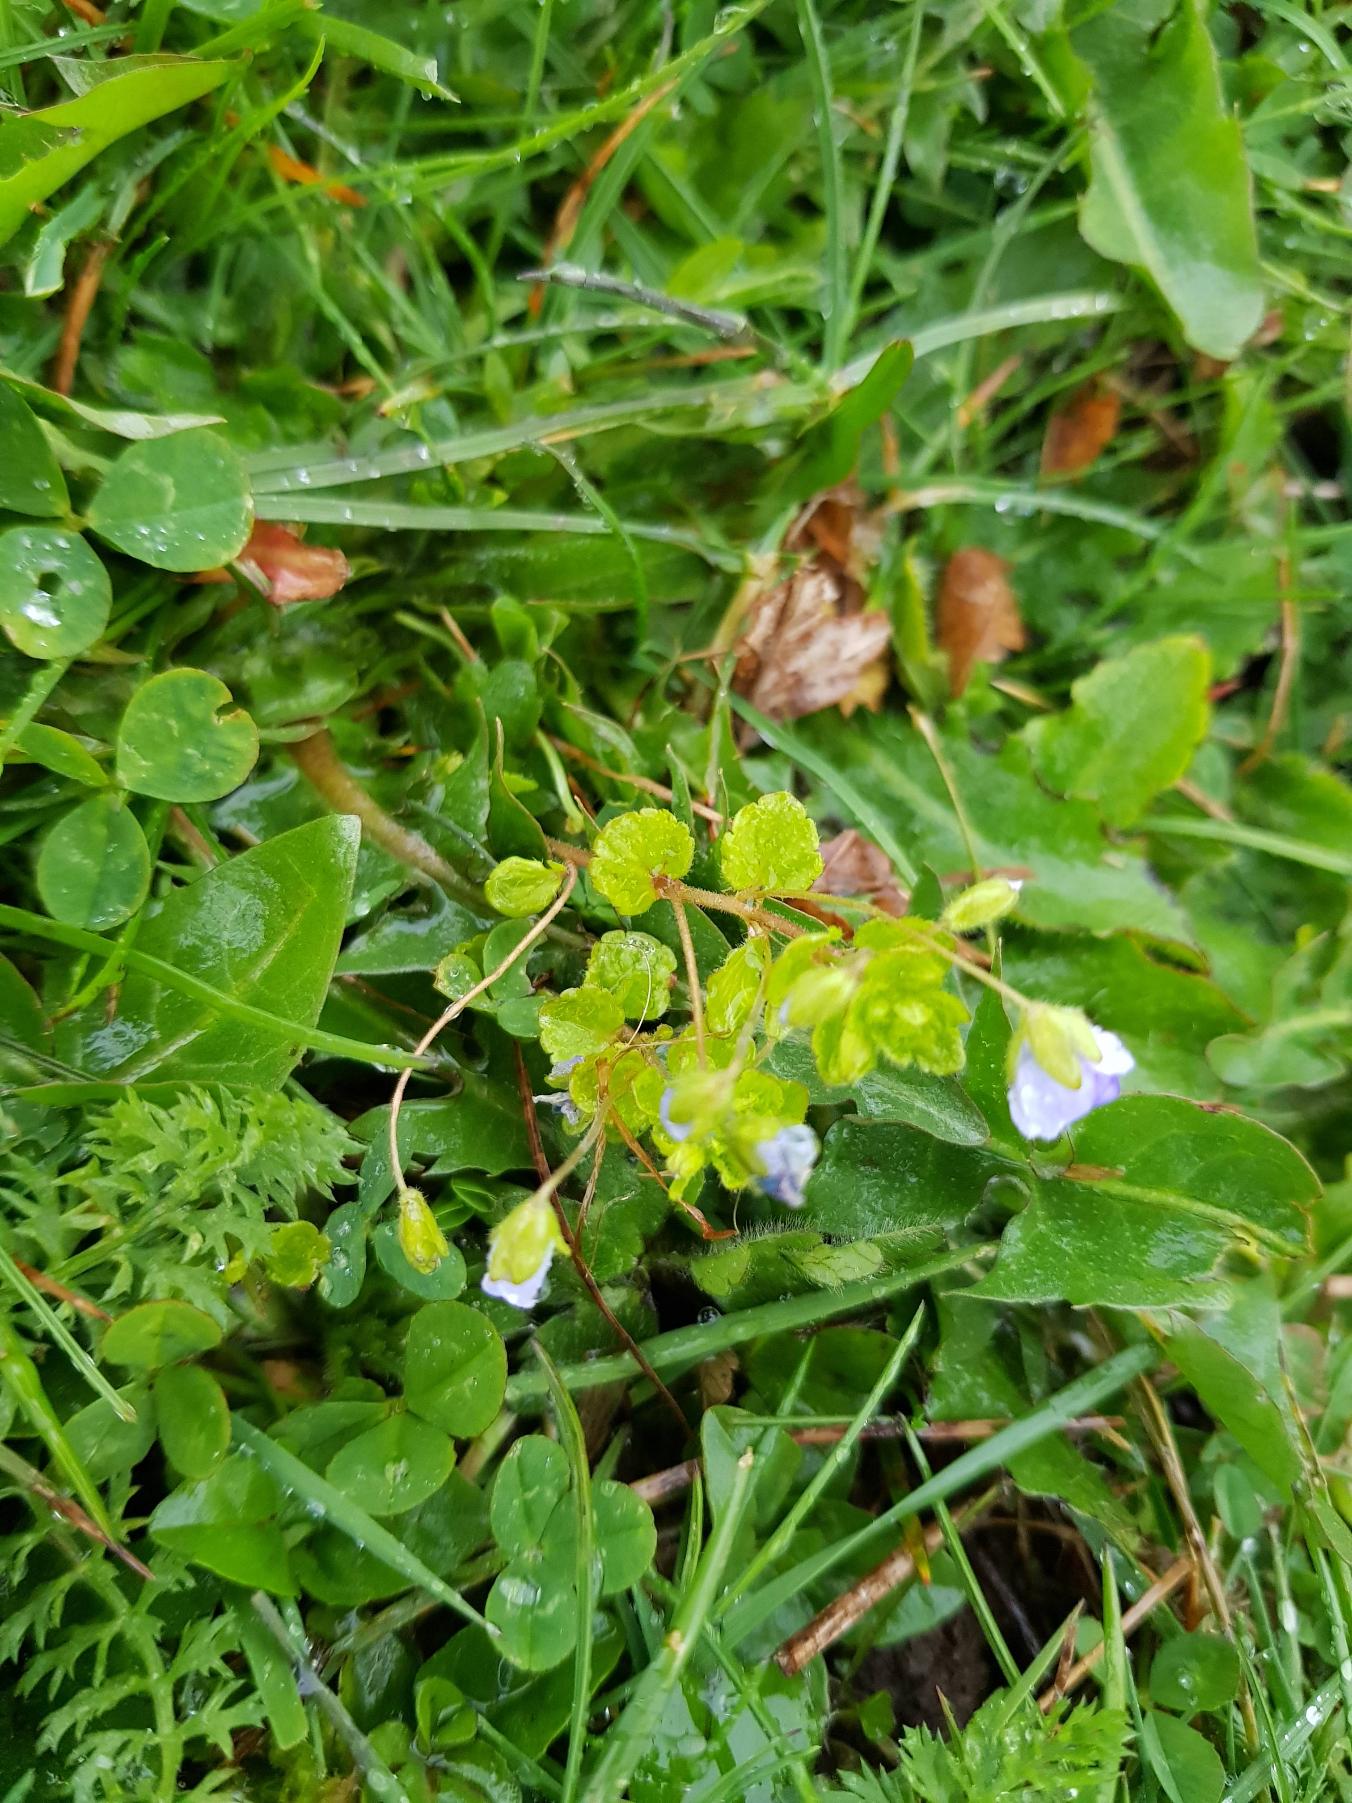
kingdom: Plantae
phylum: Tracheophyta
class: Magnoliopsida
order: Lamiales
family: Plantaginaceae
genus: Veronica
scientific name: Veronica filiformis
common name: Tråd-ærenpris
